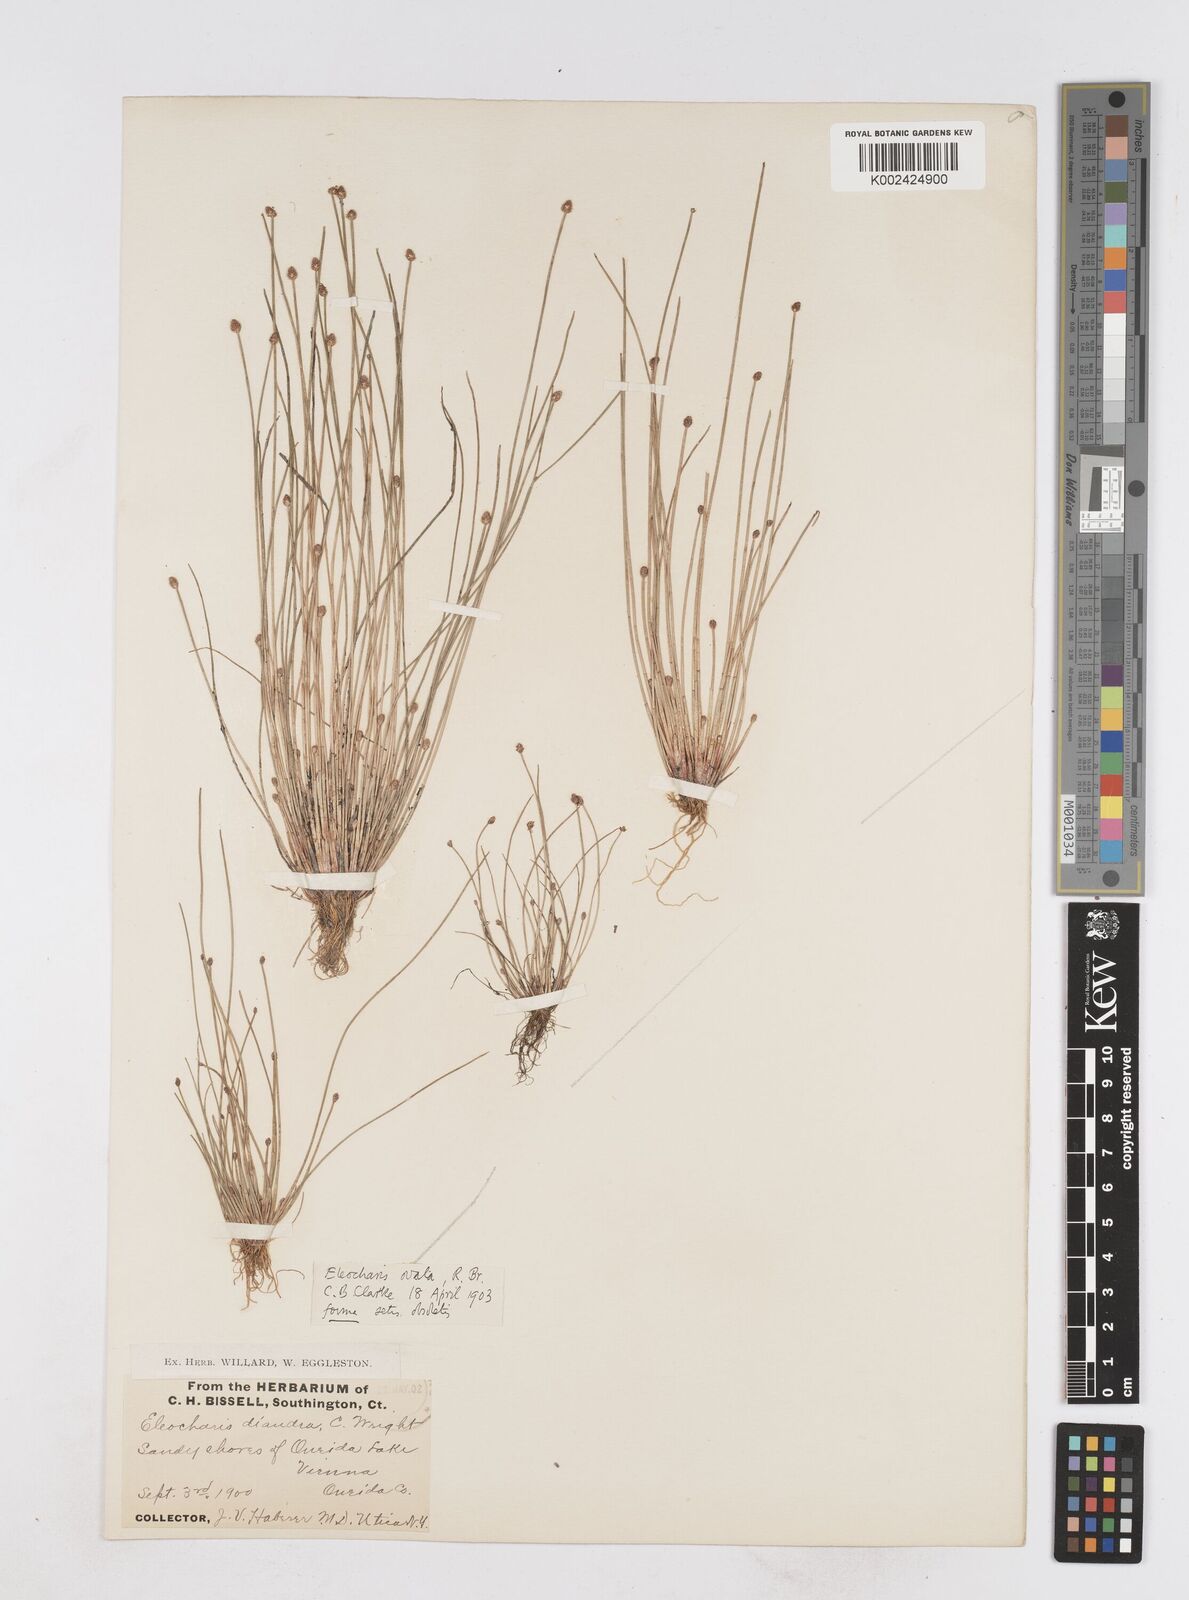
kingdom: Plantae
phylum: Tracheophyta
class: Liliopsida
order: Poales
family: Cyperaceae
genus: Eleocharis
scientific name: Eleocharis ovata
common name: Oval spike-rush
